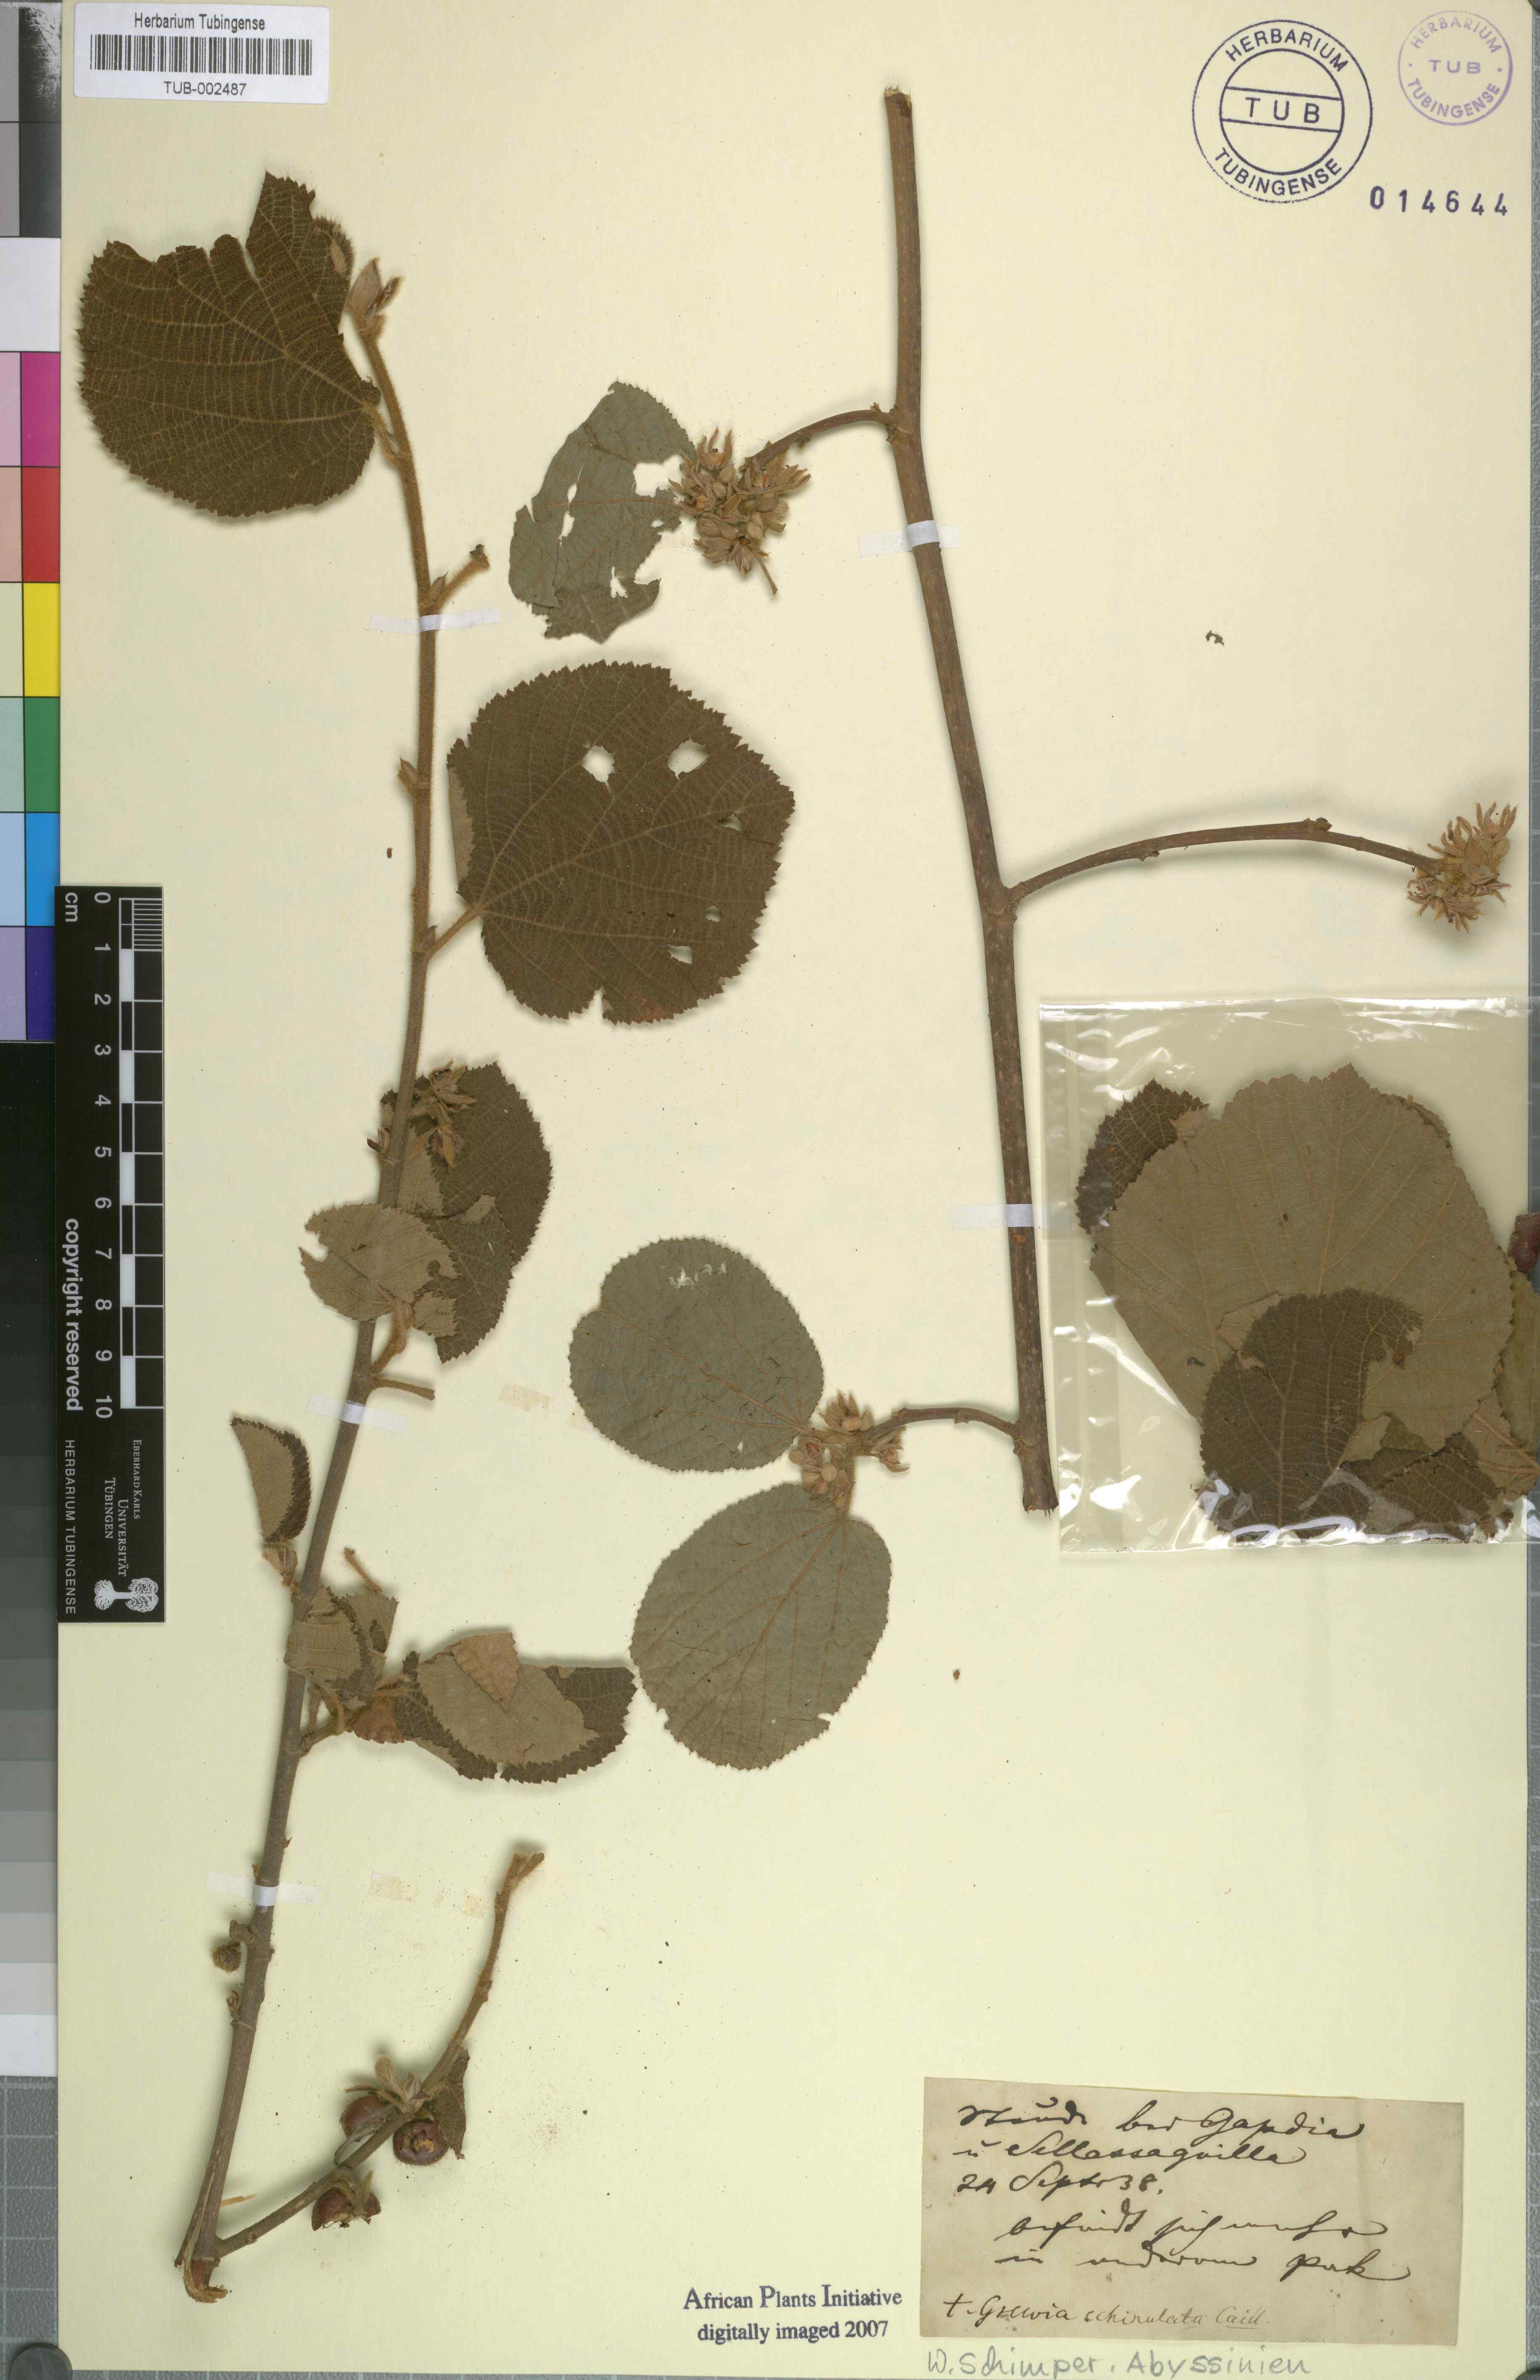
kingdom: Plantae
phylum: Tracheophyta
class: Magnoliopsida
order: Malvales
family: Malvaceae
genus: Grewia
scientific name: Grewia villosa
